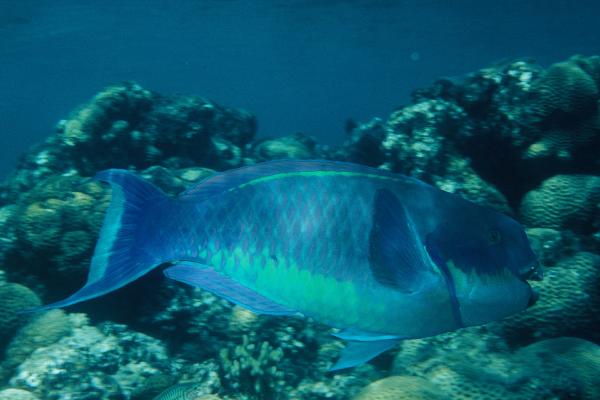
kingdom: Animalia
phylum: Chordata
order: Perciformes
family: Scaridae
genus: Chlorurus
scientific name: Chlorurus gibbus
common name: Heavybeak parrotfish
